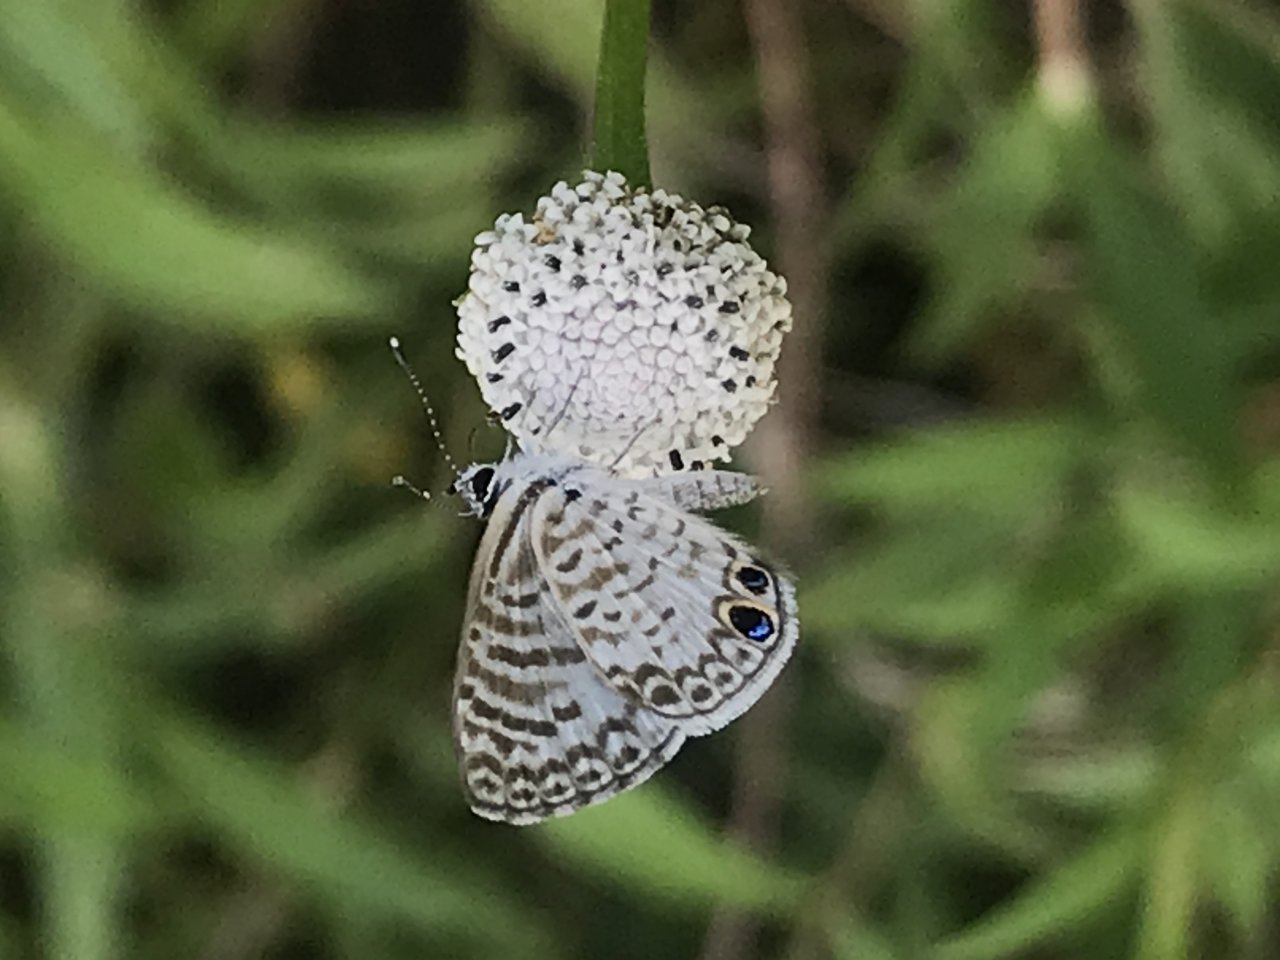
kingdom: Animalia
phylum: Arthropoda
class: Insecta
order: Lepidoptera
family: Lycaenidae
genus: Leptotes
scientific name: Leptotes cassius
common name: Cassius Blue
